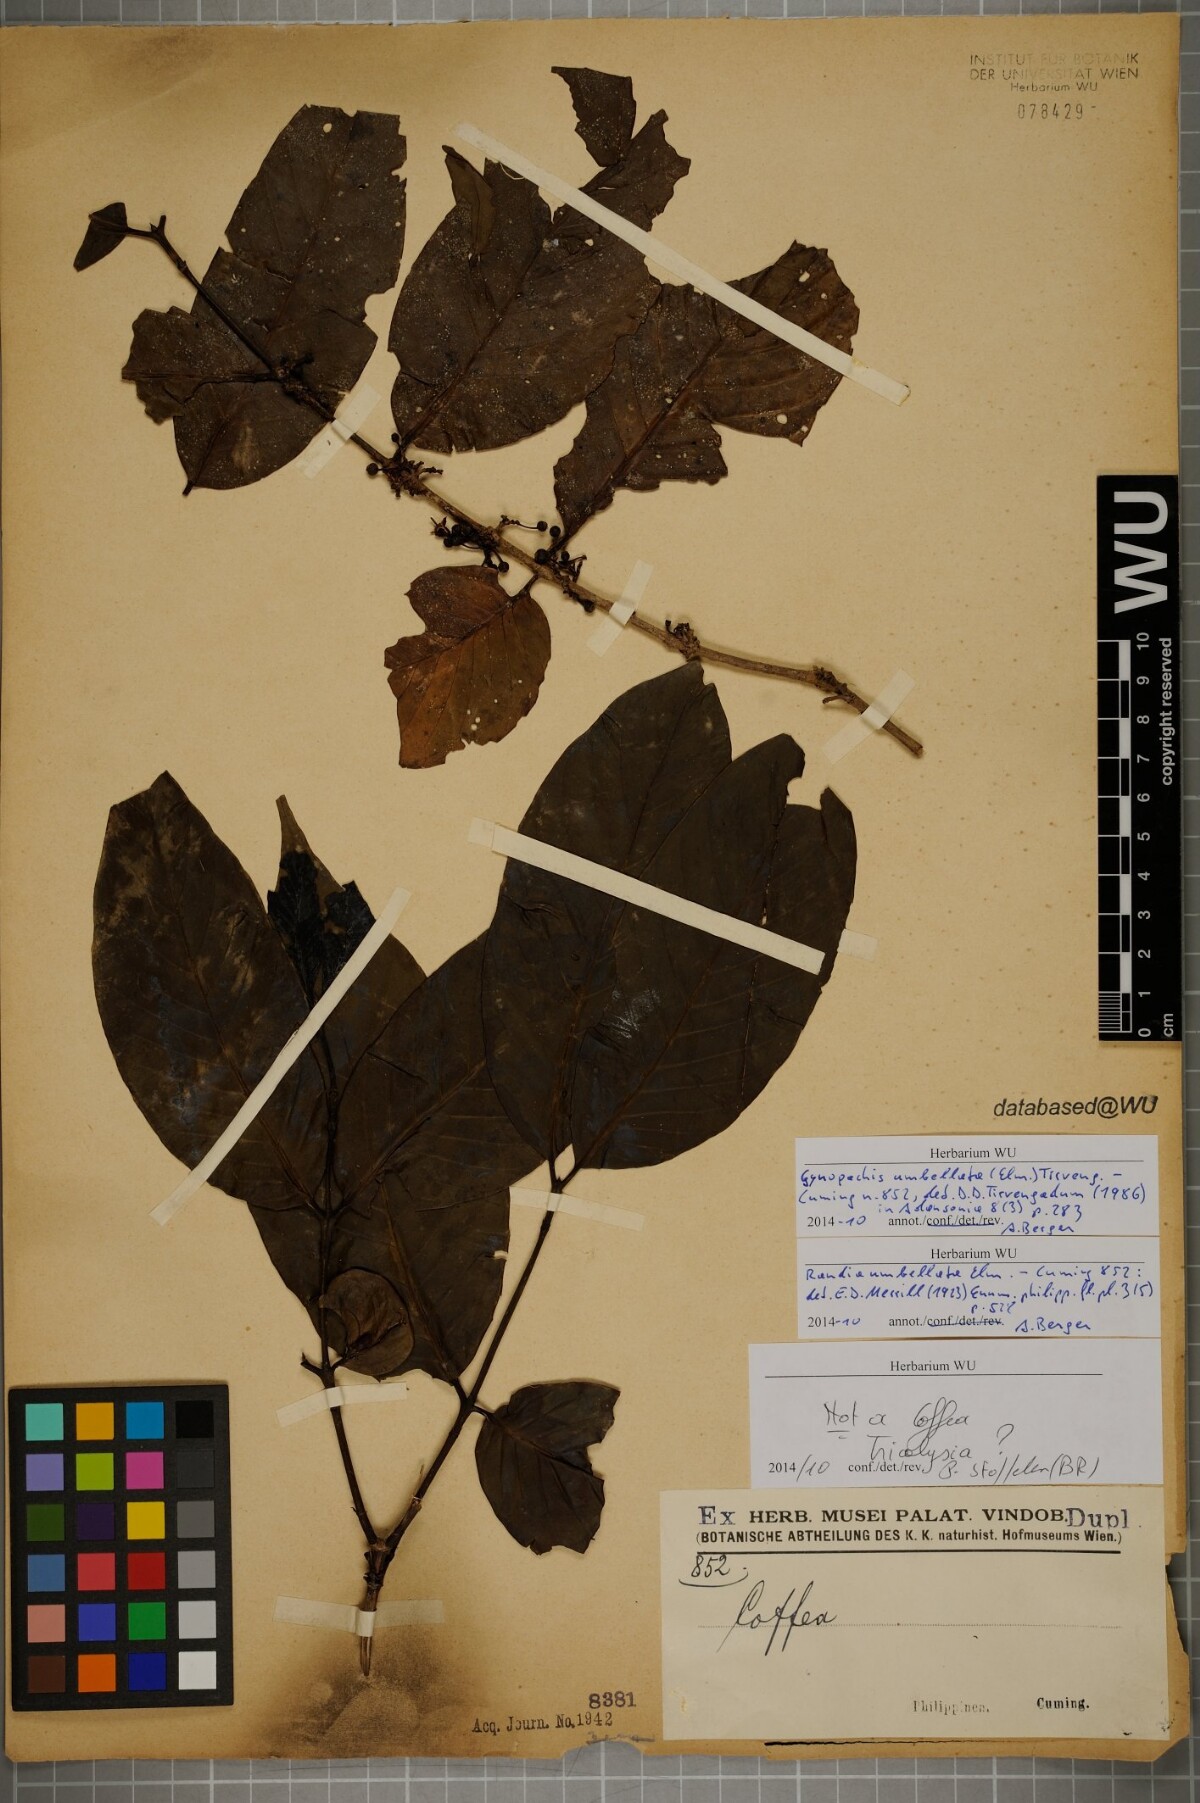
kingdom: Plantae
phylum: Tracheophyta
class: Magnoliopsida
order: Gentianales
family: Rubiaceae
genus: Aidia
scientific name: Aidia acuminata
